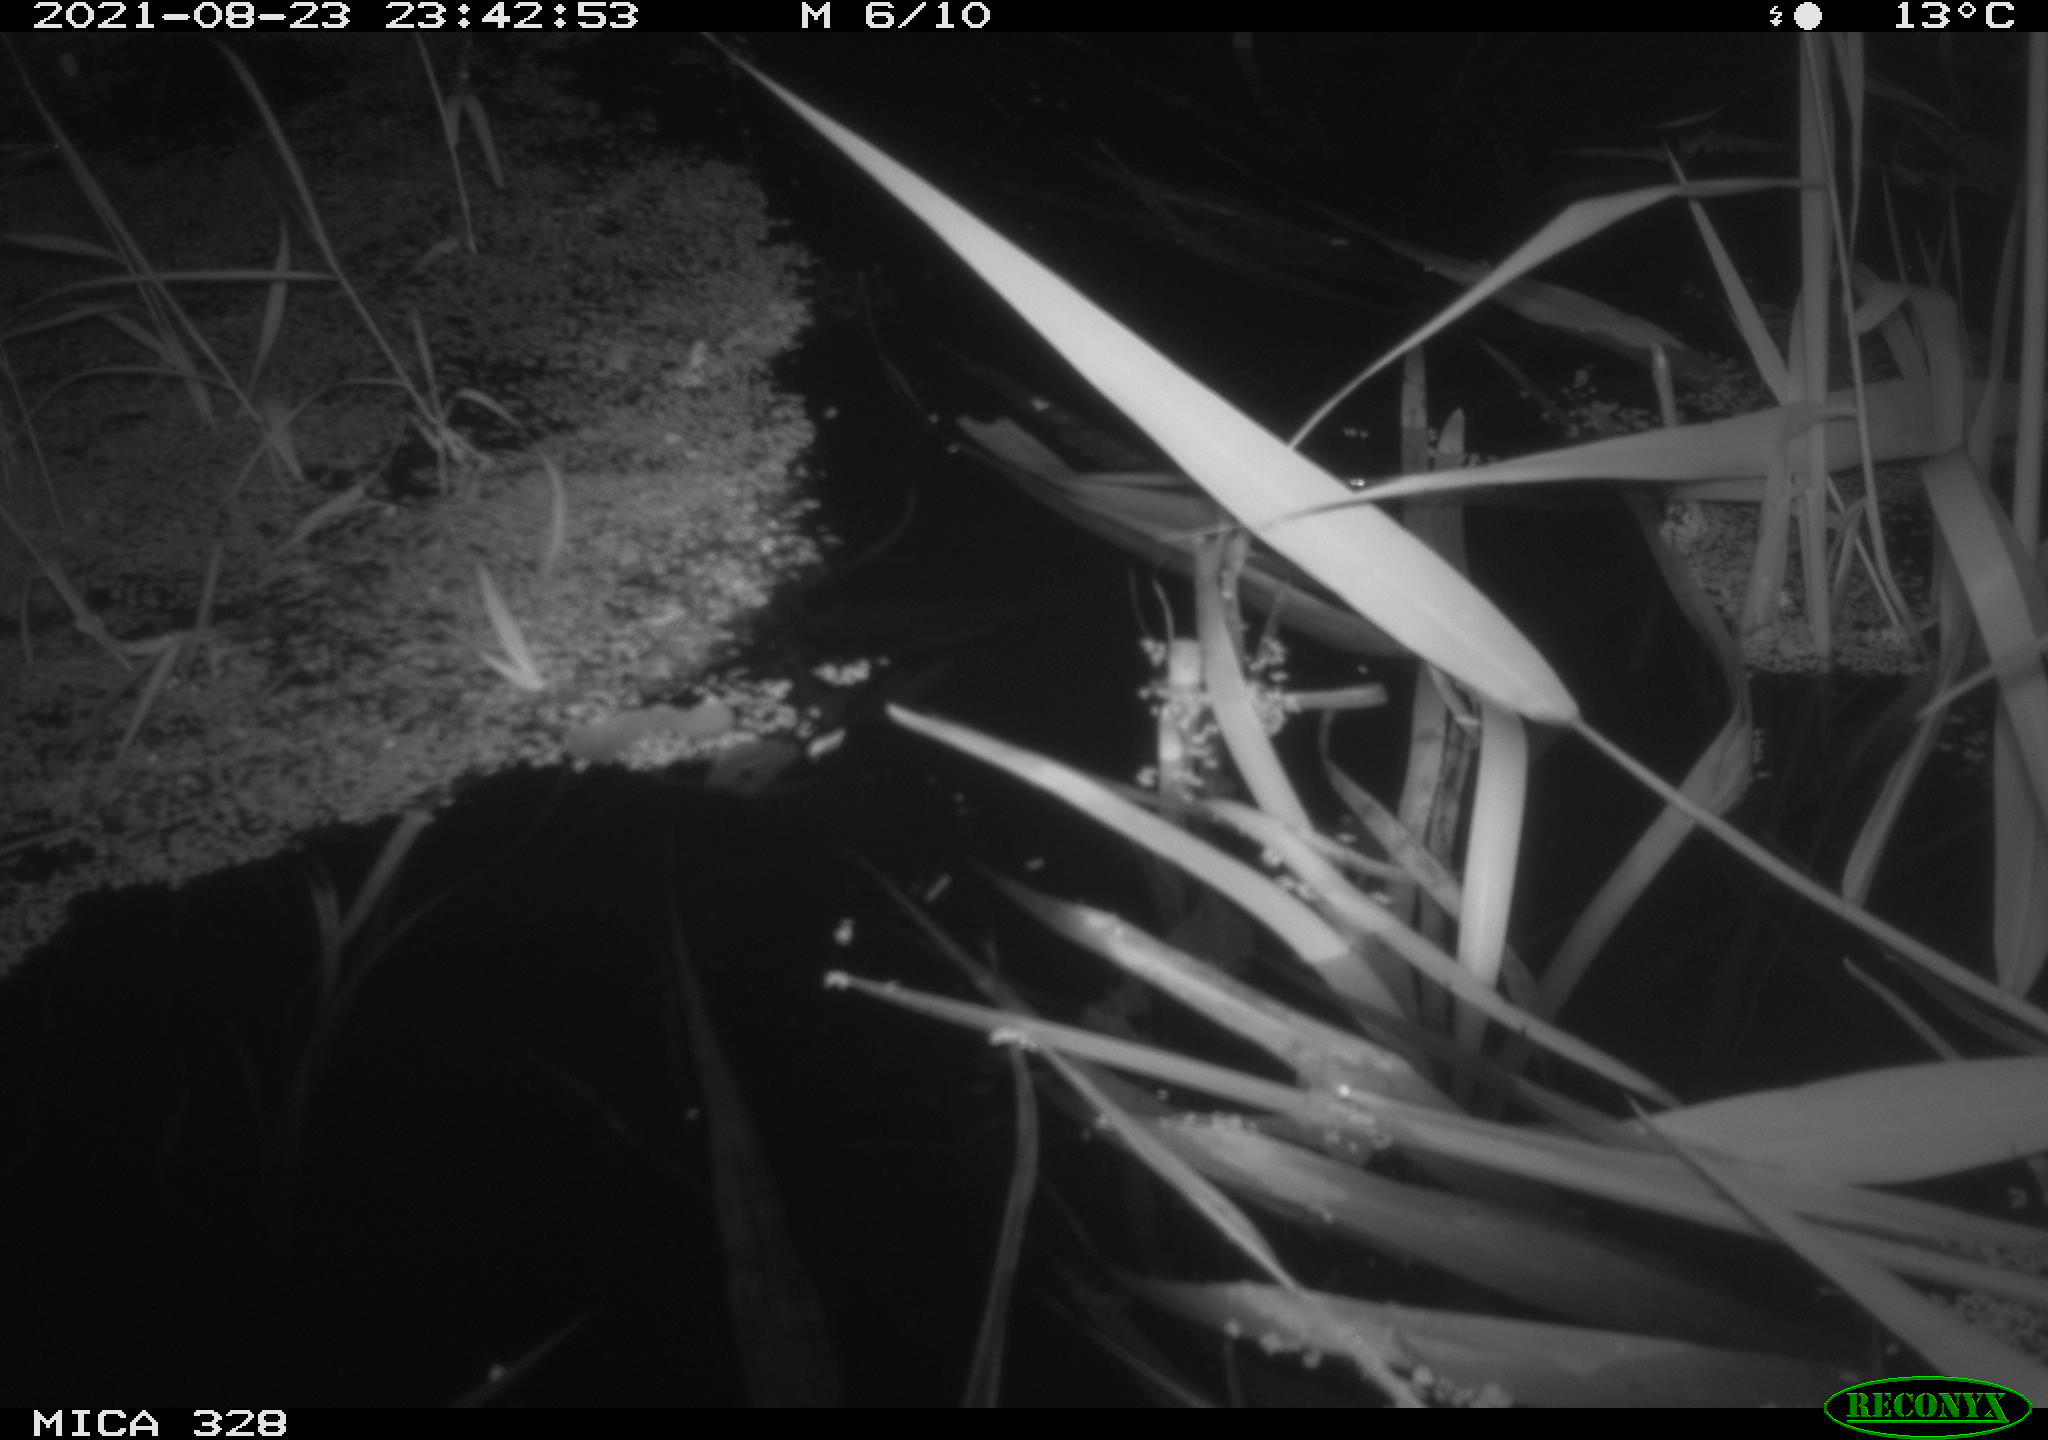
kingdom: Animalia
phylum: Chordata
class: Mammalia
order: Rodentia
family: Cricetidae
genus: Ondatra
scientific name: Ondatra zibethicus
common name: Muskrat
